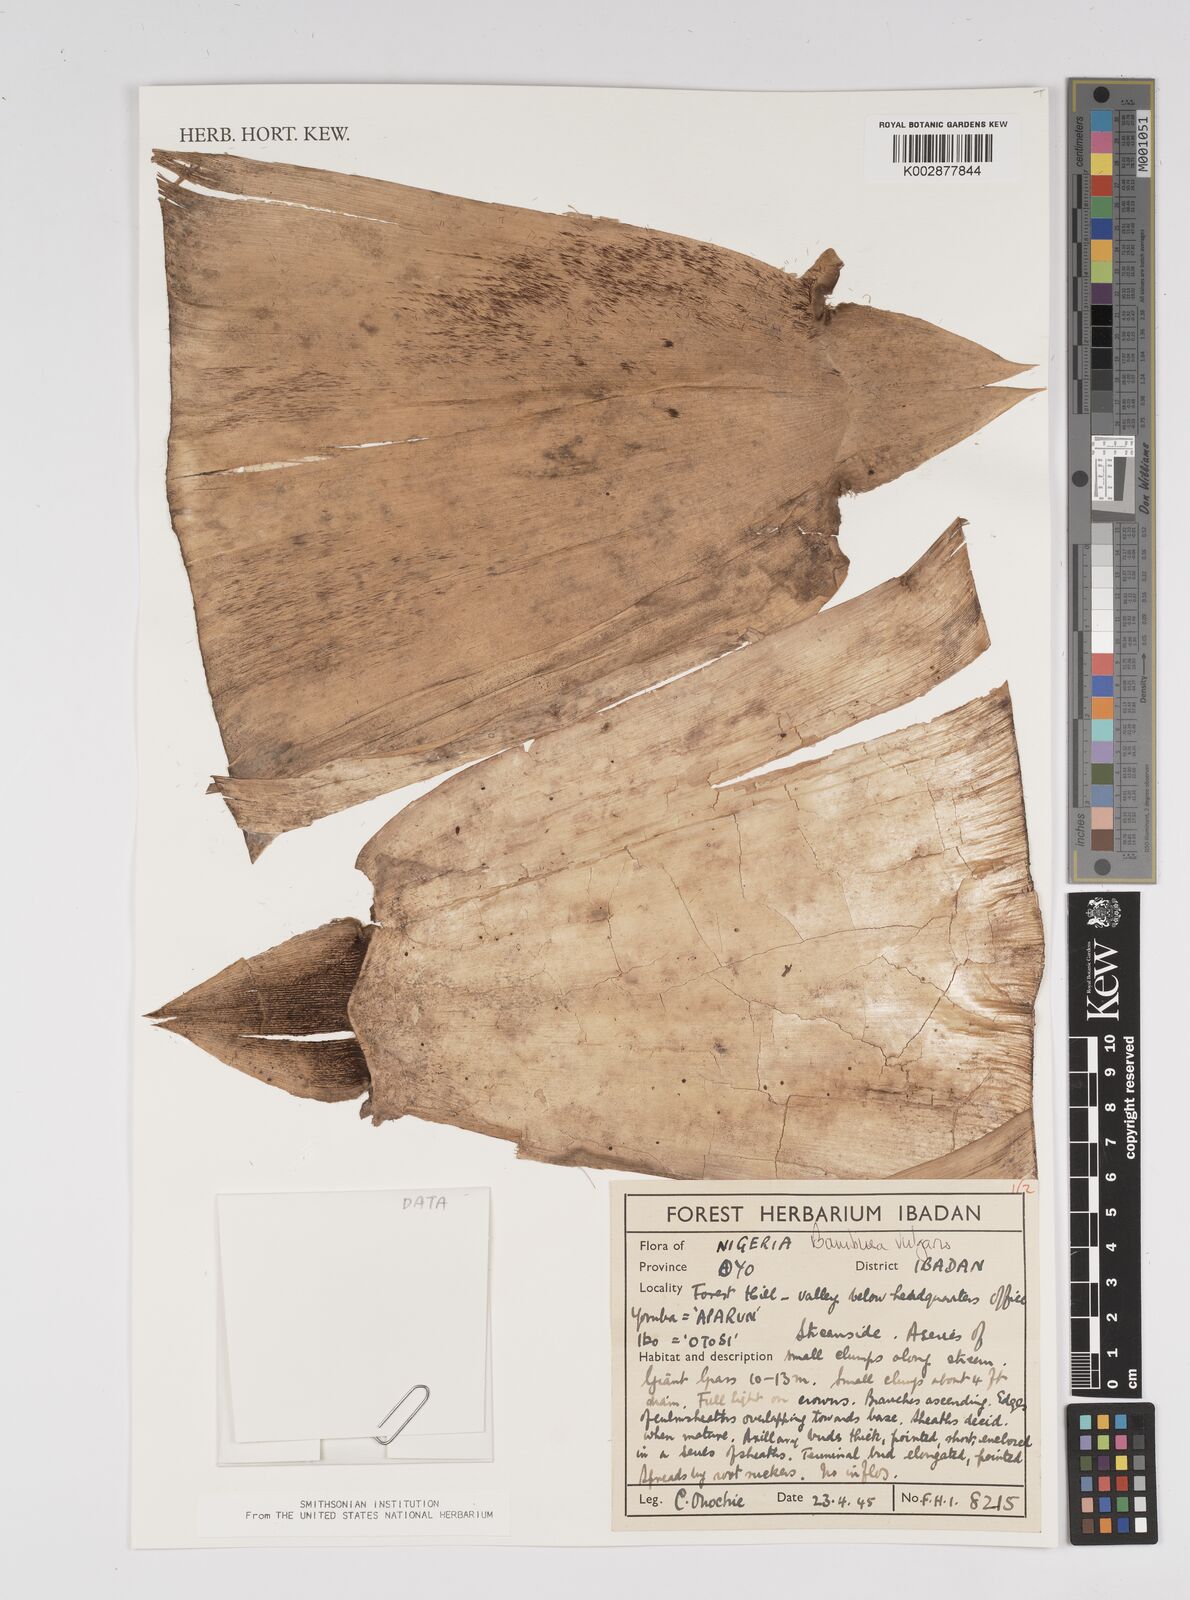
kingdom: Plantae
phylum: Tracheophyta
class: Liliopsida
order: Poales
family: Poaceae
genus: Bambusa
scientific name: Bambusa vulgaris
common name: Common bamboo
